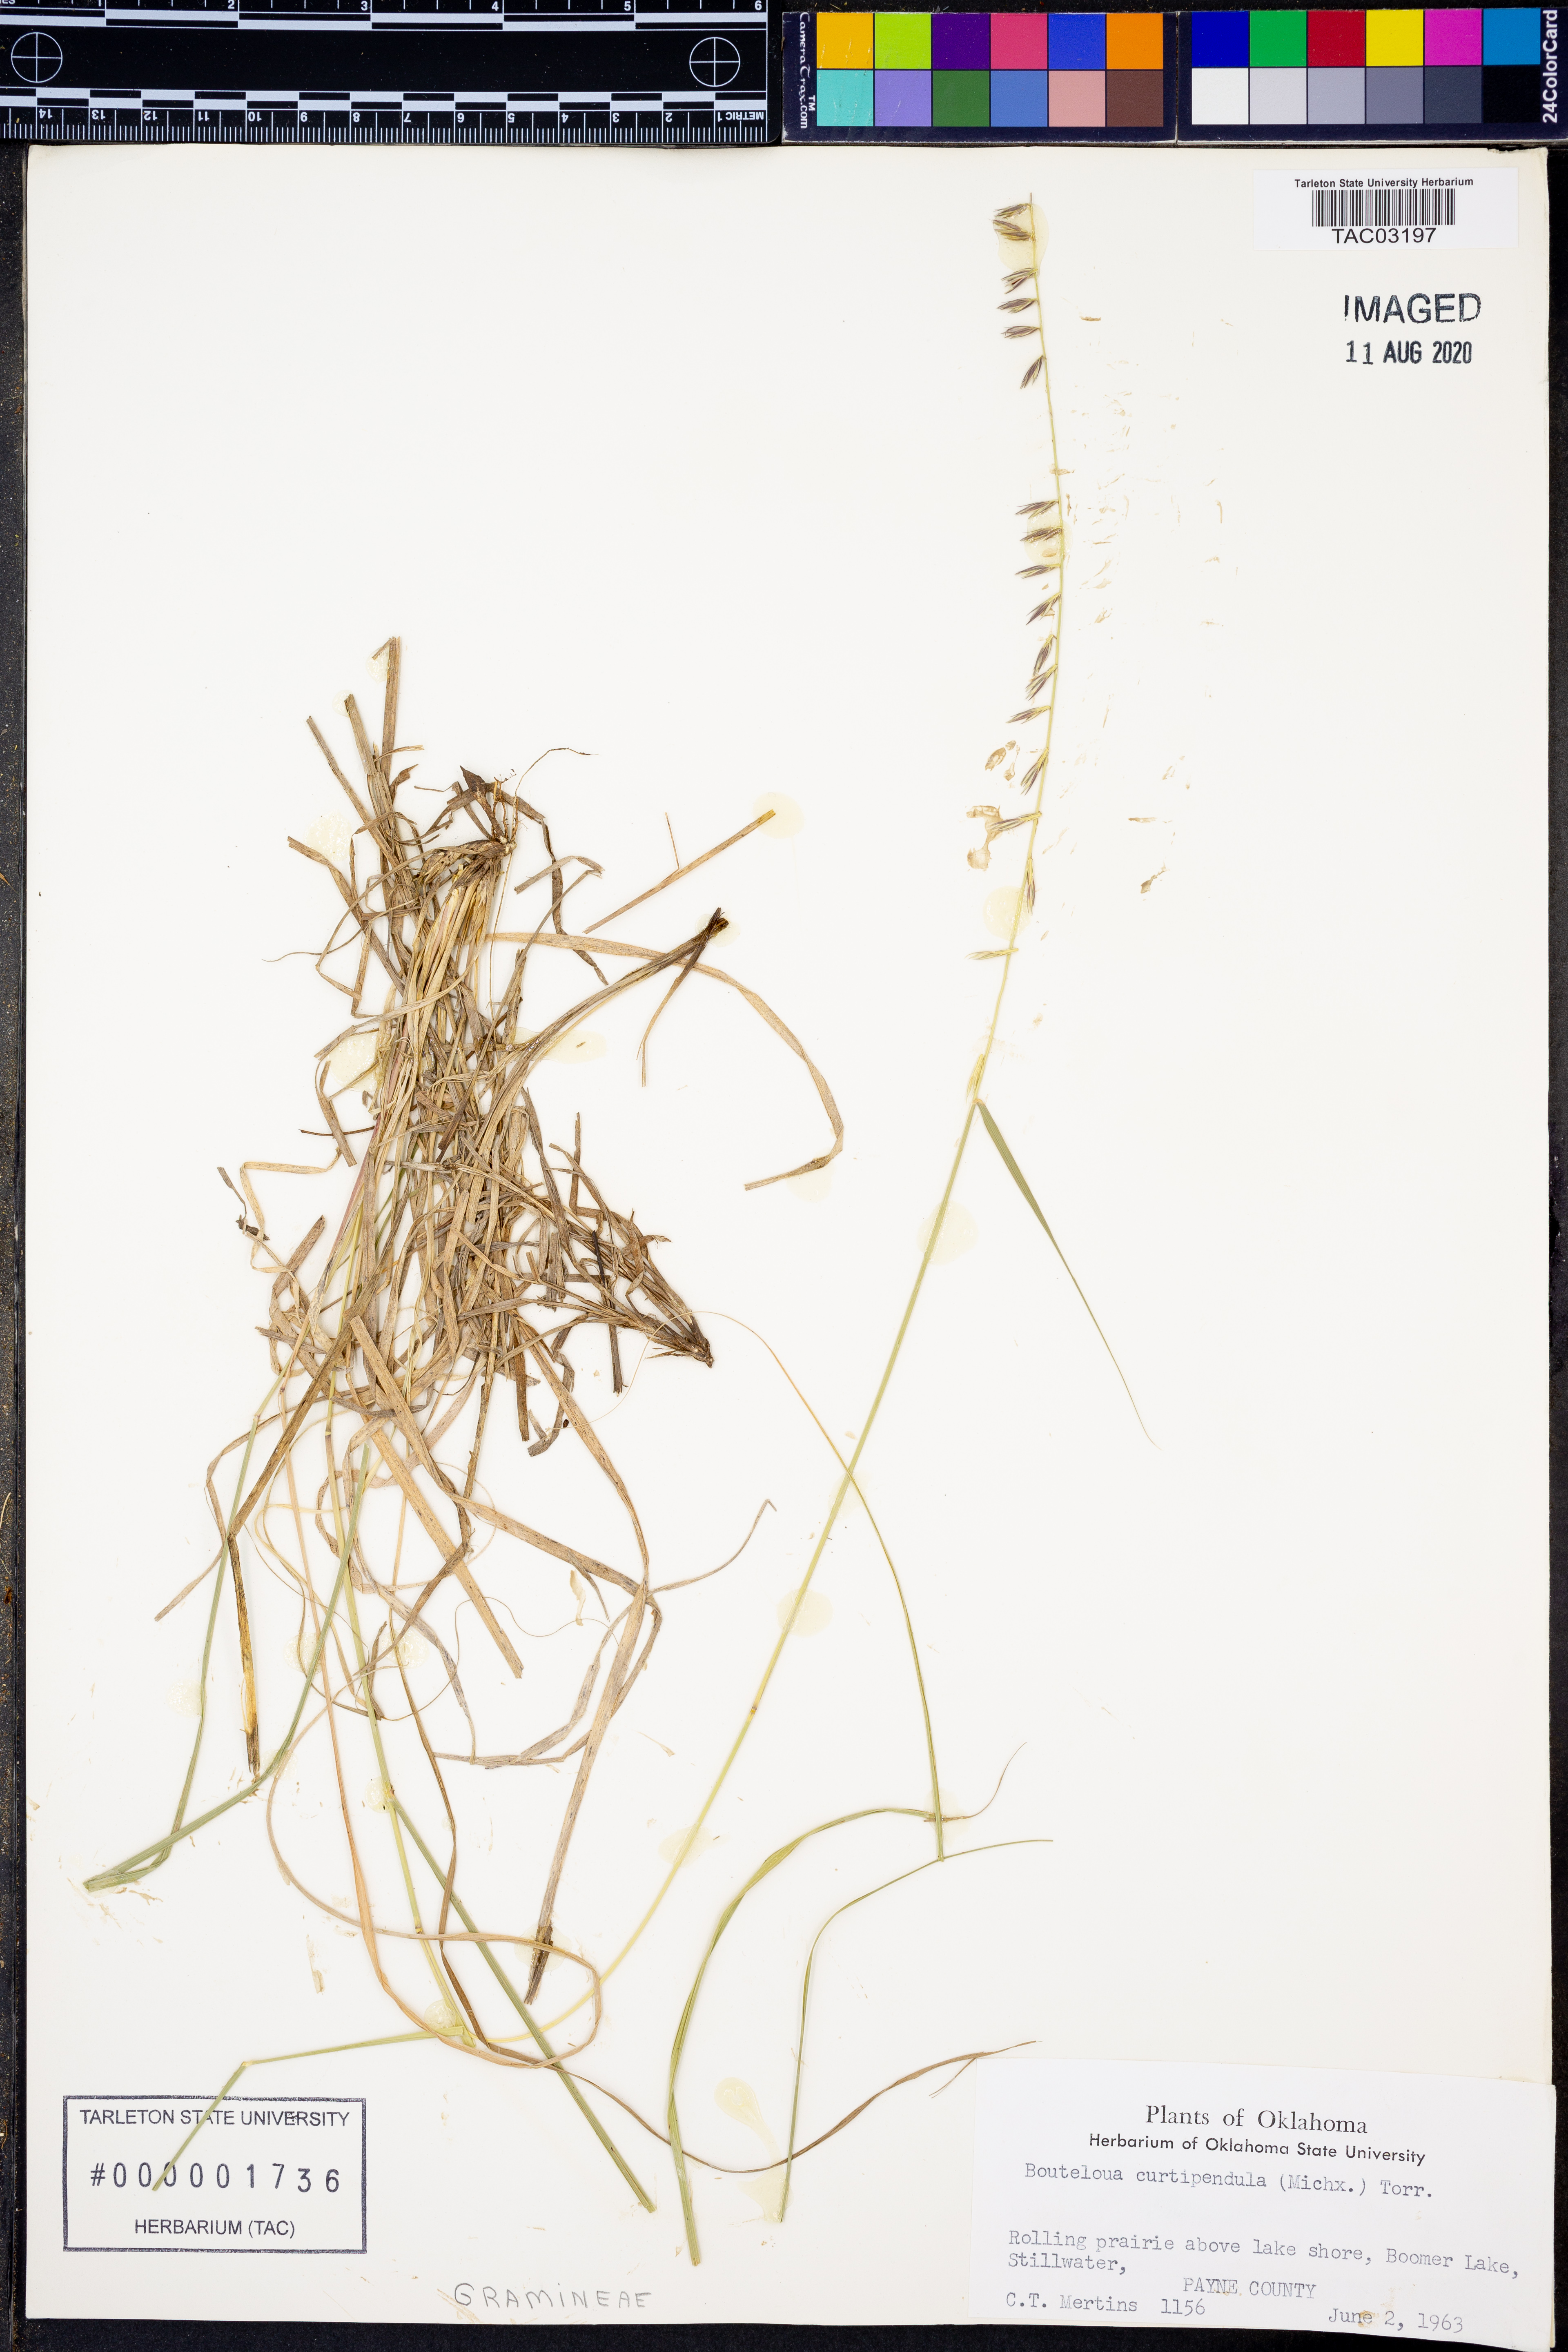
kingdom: Plantae
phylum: Tracheophyta
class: Liliopsida
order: Poales
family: Poaceae
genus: Bouteloua
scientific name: Bouteloua curtipendula
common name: Side-oats grama
